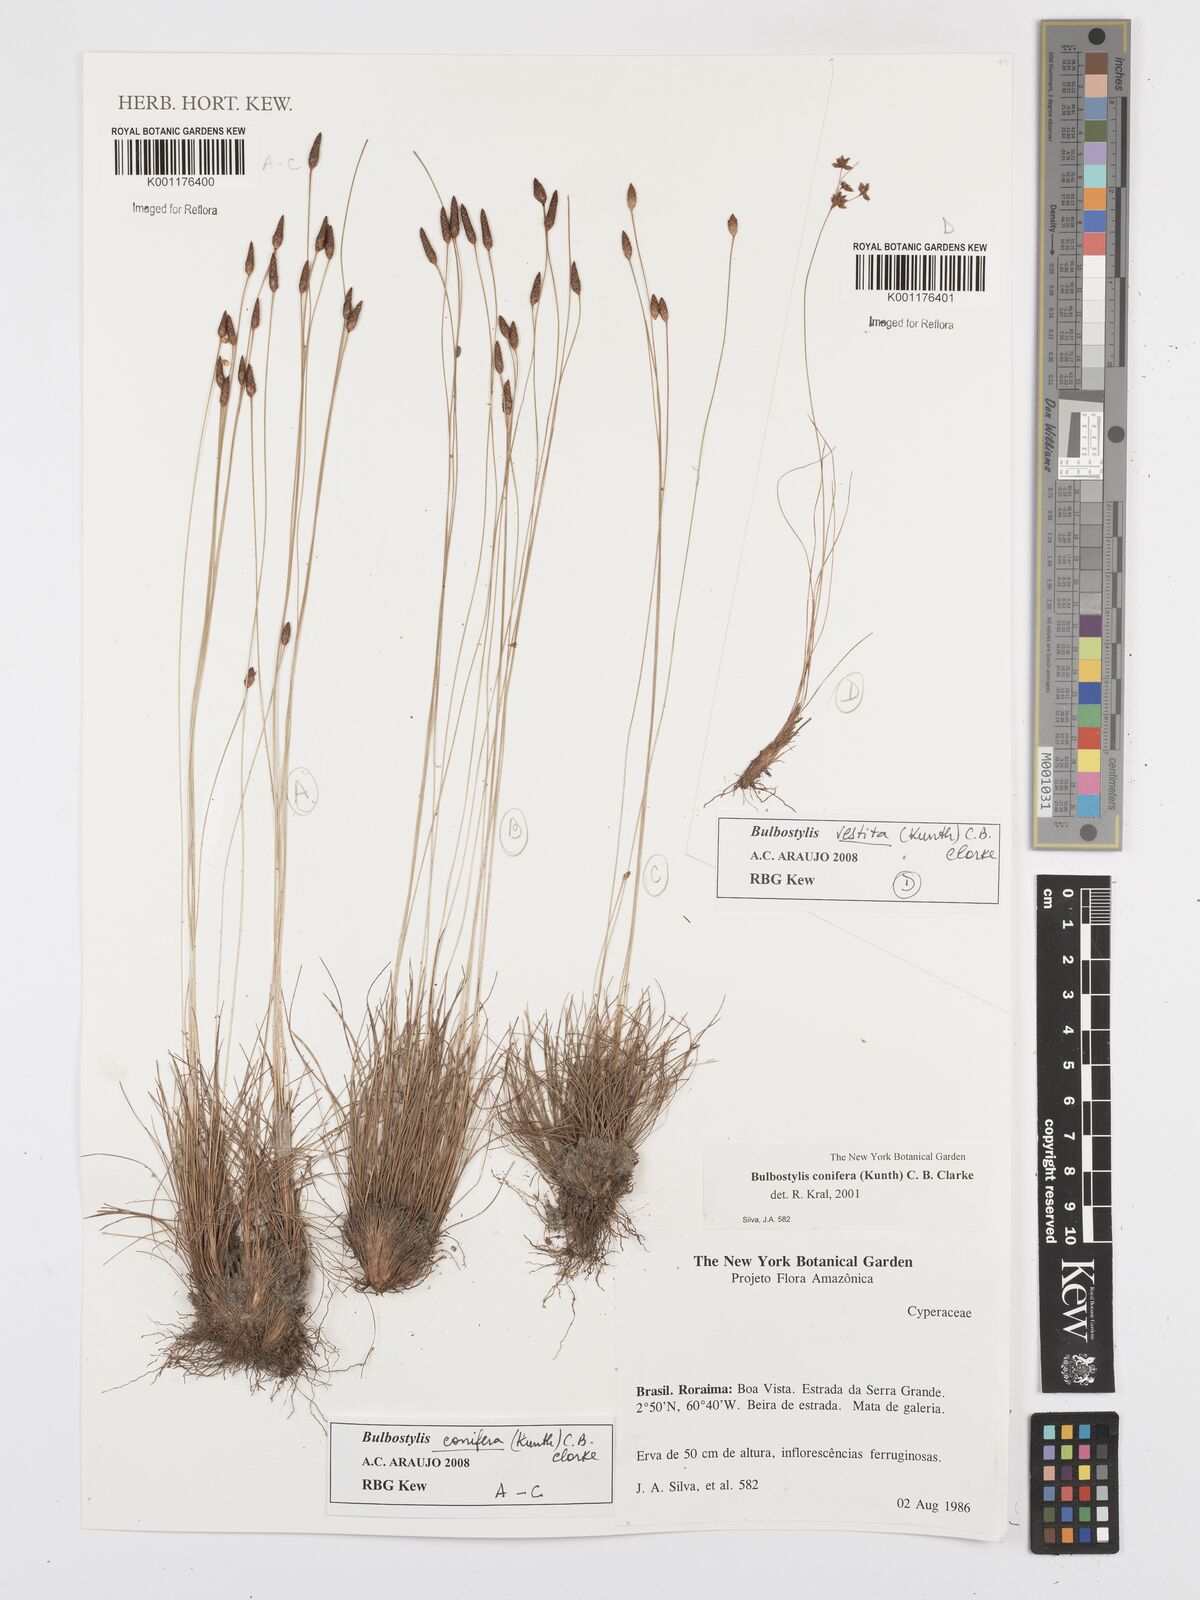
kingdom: Plantae
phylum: Tracheophyta
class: Liliopsida
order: Poales
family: Cyperaceae
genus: Bulbostylis
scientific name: Bulbostylis conifera
